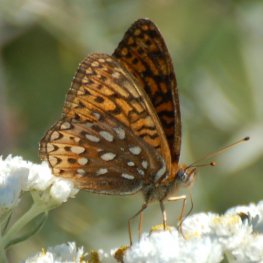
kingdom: Animalia
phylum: Arthropoda
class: Insecta
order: Lepidoptera
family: Nymphalidae
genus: Speyeria
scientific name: Speyeria atlantis
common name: Atlantis Fritillary
